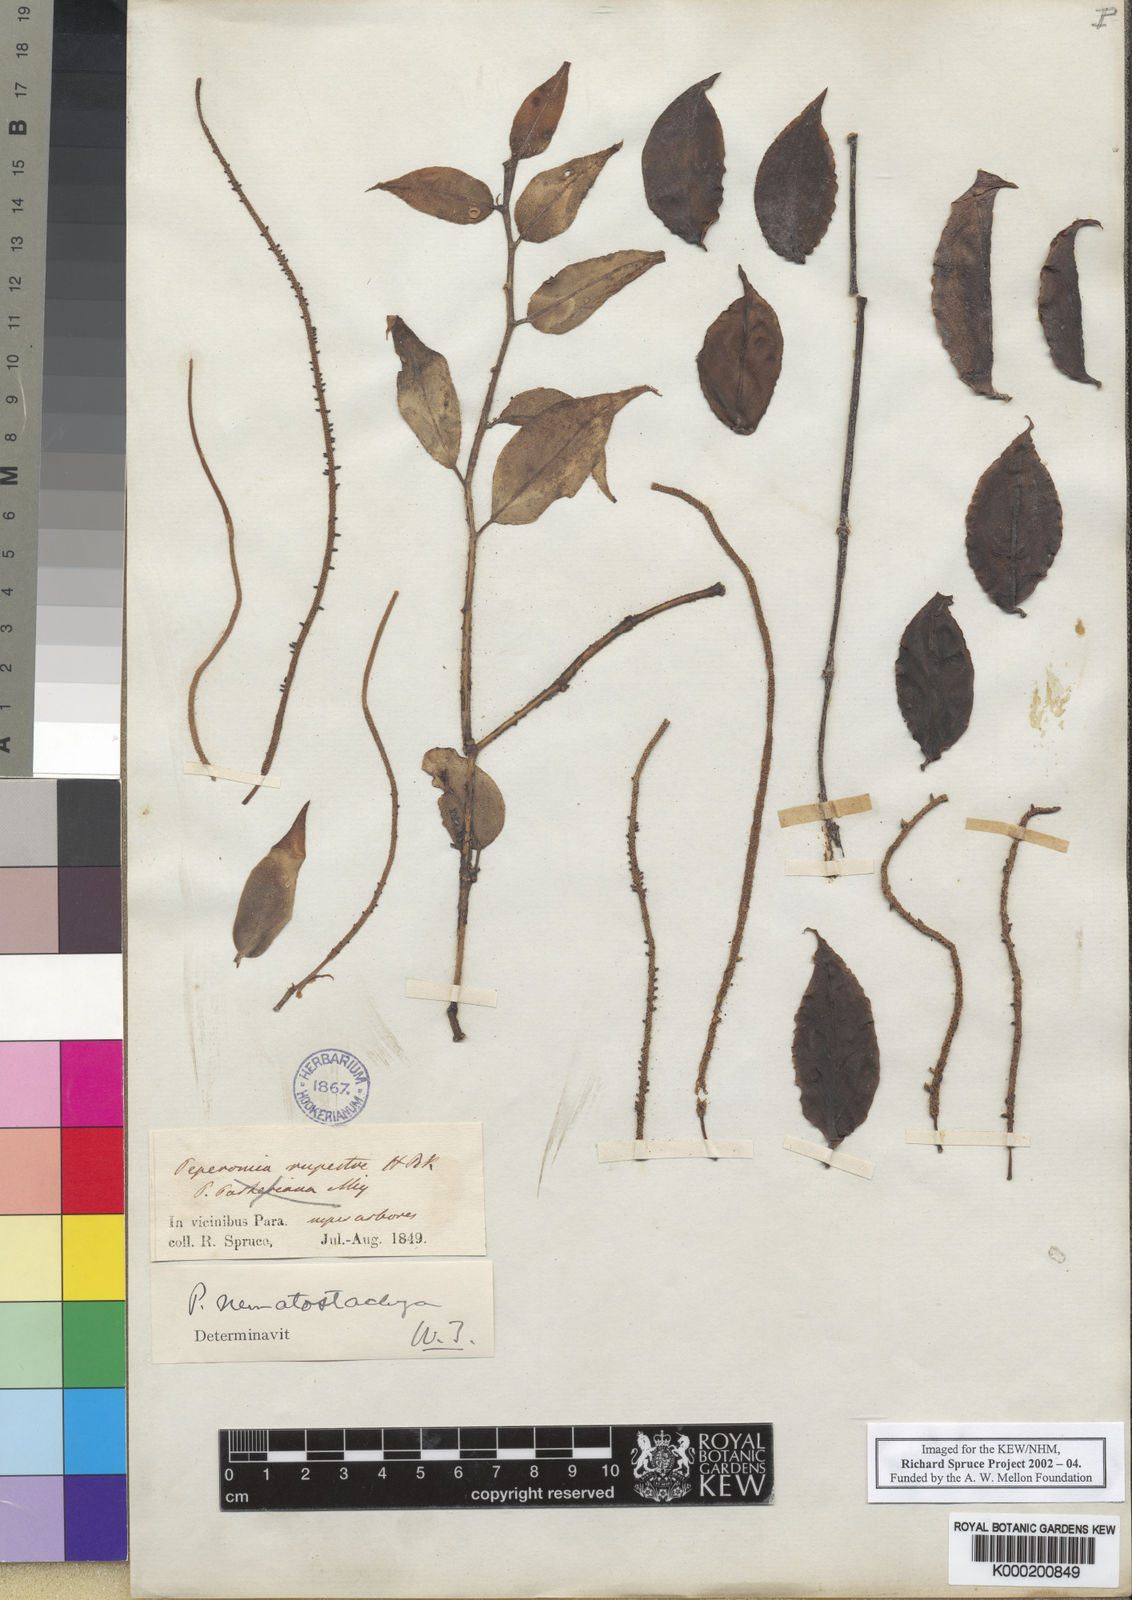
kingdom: Plantae
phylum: Tracheophyta
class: Magnoliopsida
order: Piperales
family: Piperaceae
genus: Peperomia
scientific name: Peperomia macrostachyos
